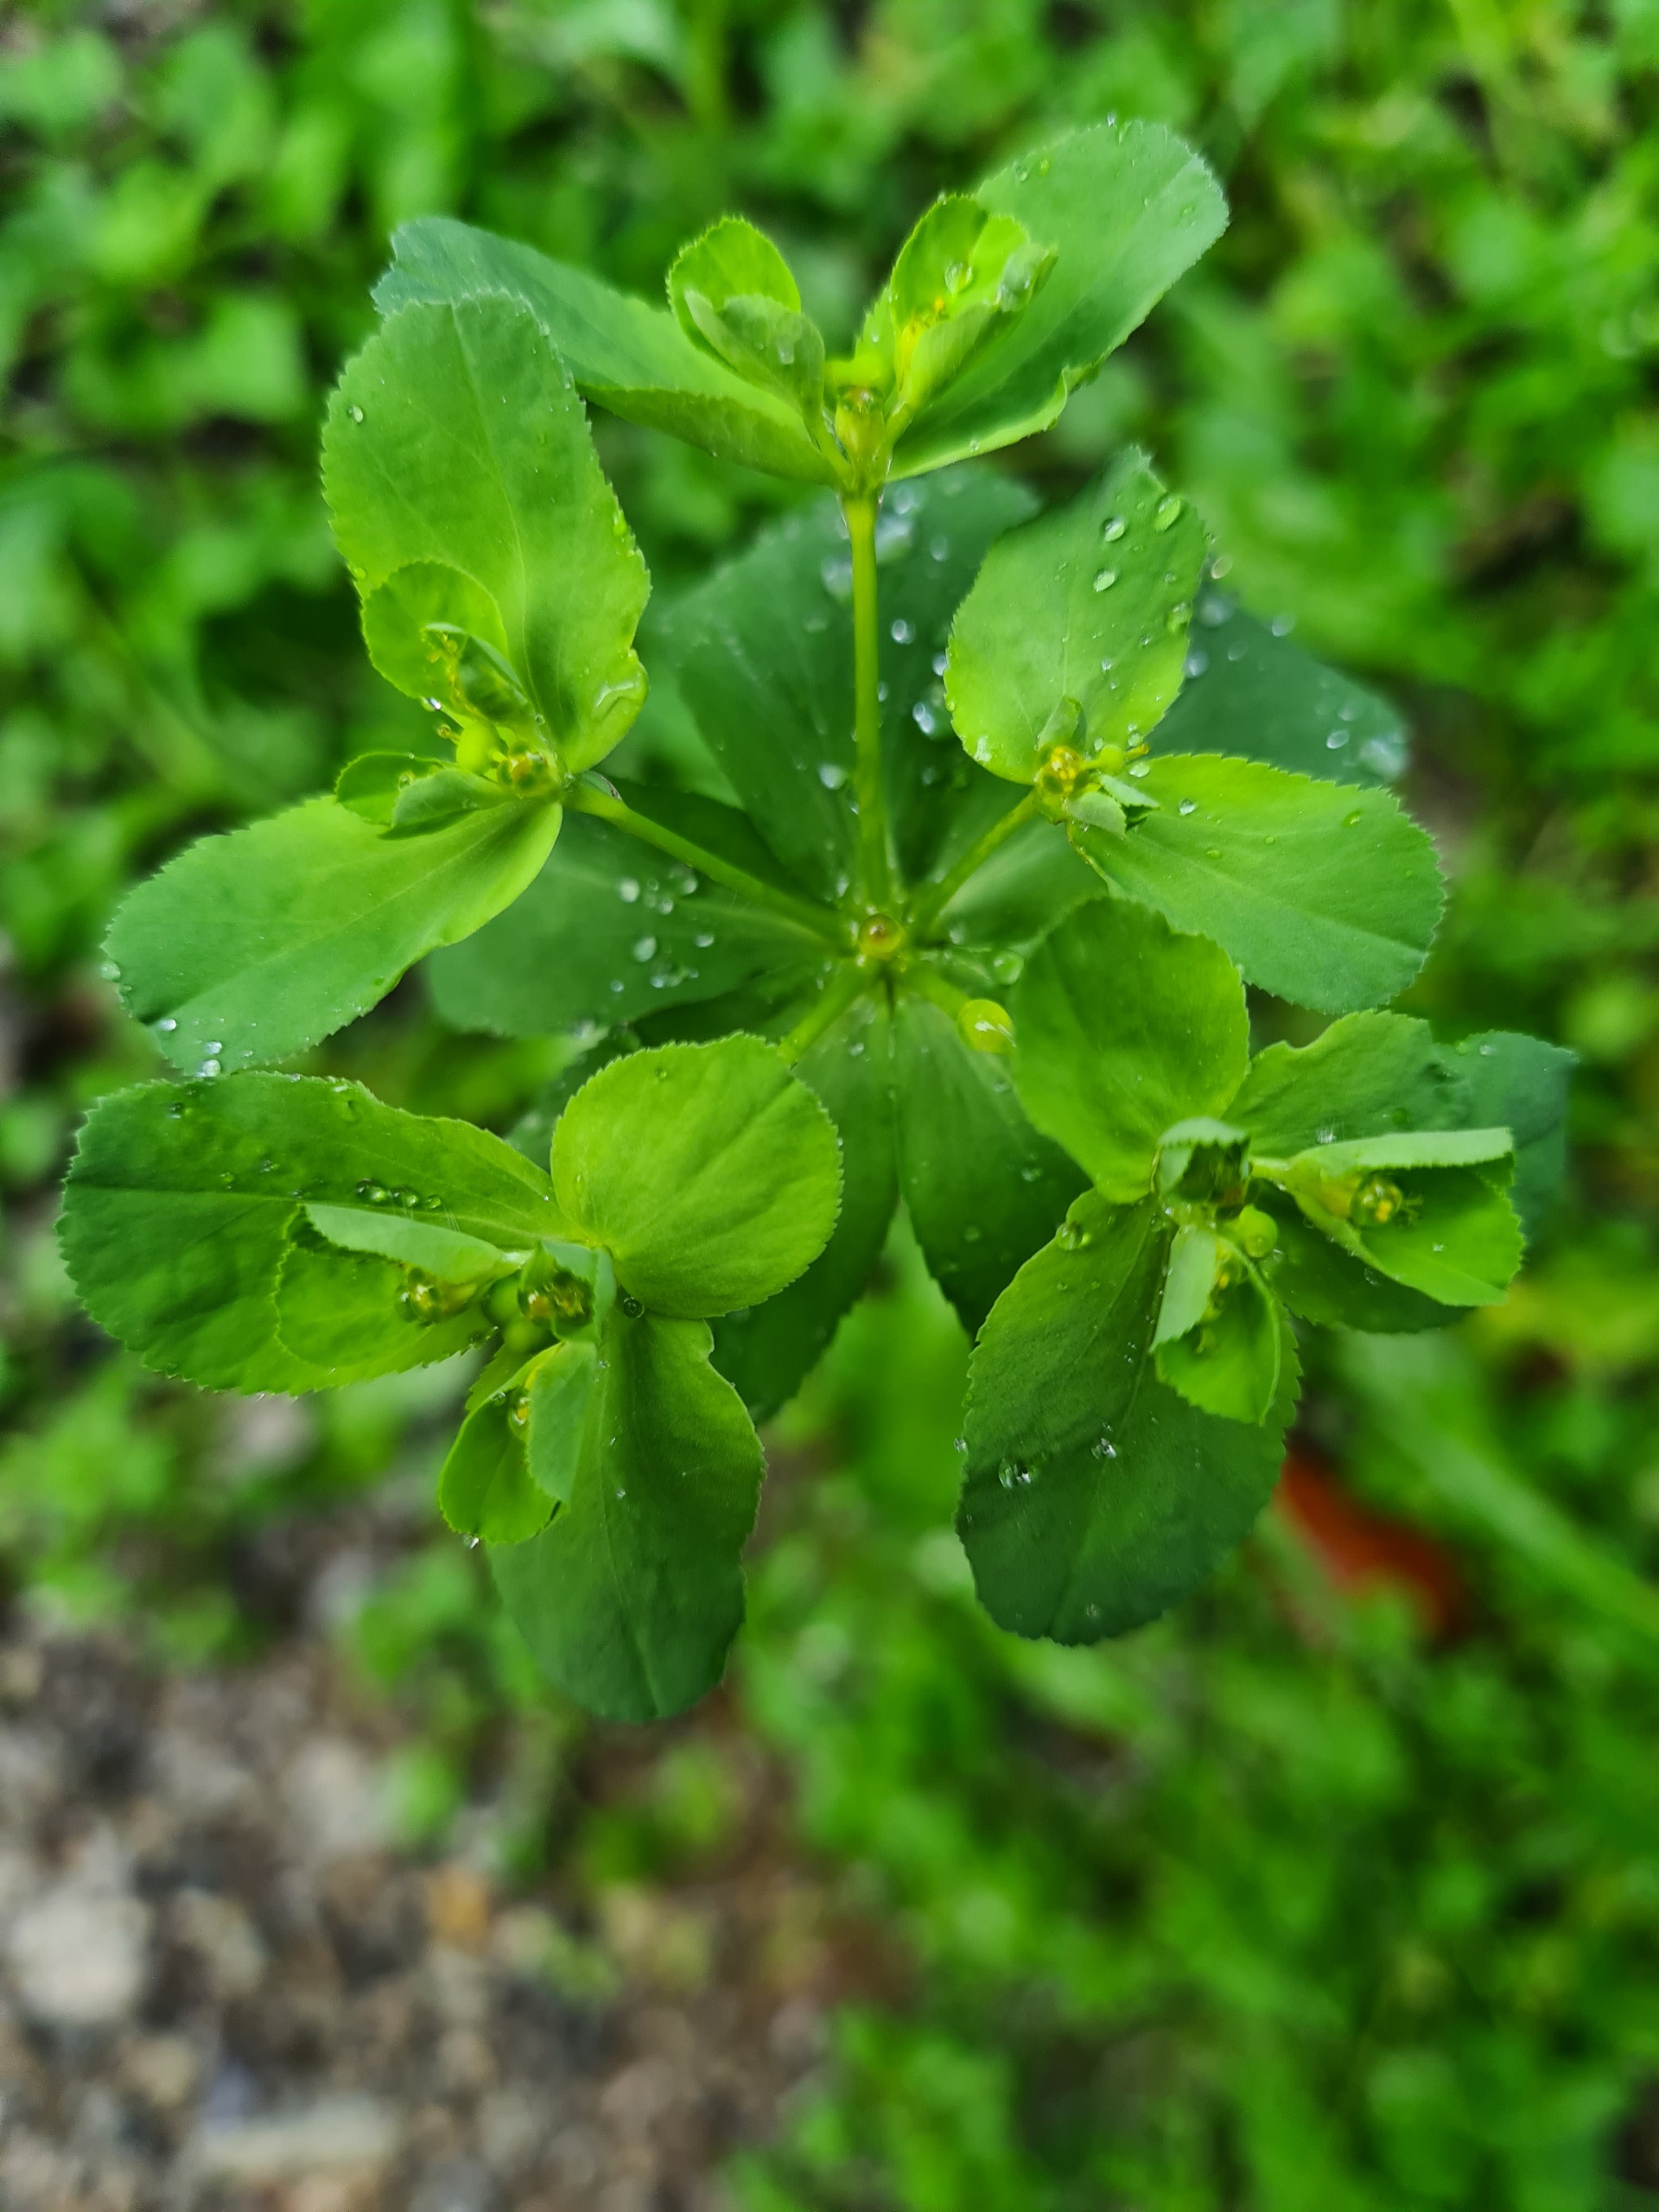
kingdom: Plantae
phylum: Tracheophyta
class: Magnoliopsida
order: Malpighiales
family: Euphorbiaceae
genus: Euphorbia
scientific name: Euphorbia helioscopia
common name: Skærm-vortemælk
